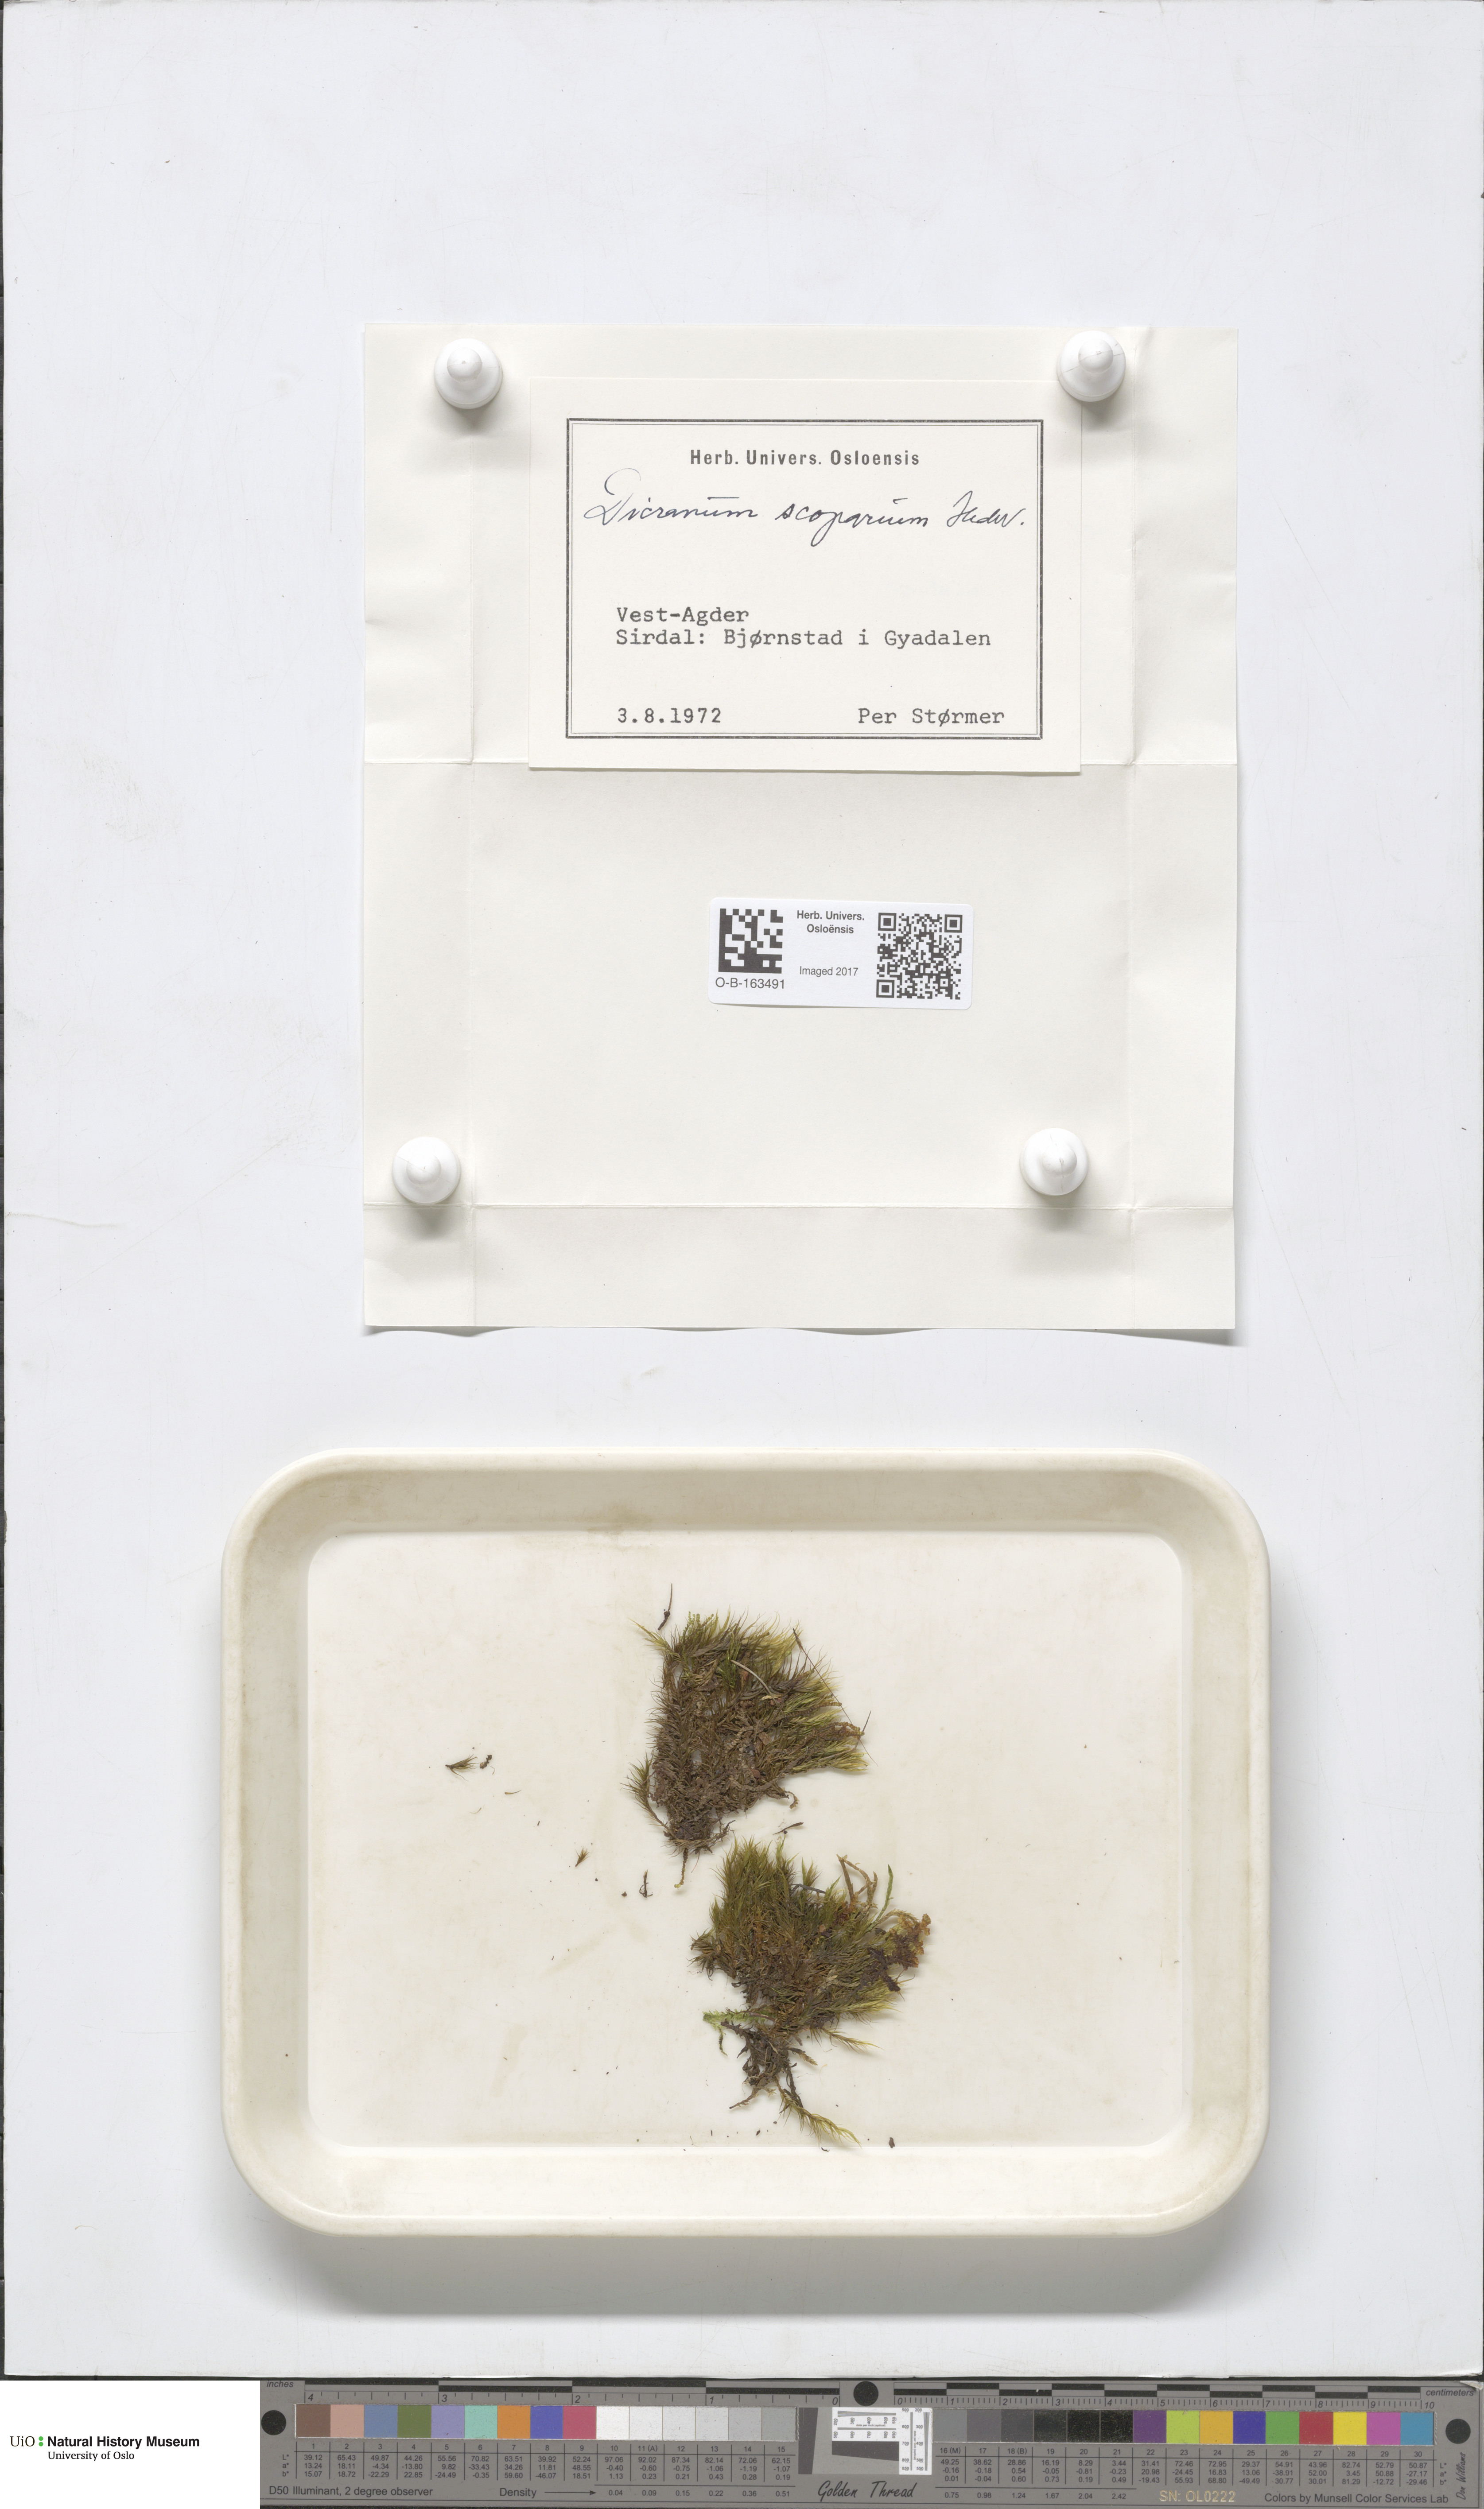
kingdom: Plantae
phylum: Bryophyta
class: Bryopsida
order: Dicranales
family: Dicranaceae
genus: Dicranum
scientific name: Dicranum scoparium
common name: Broom fork-moss
